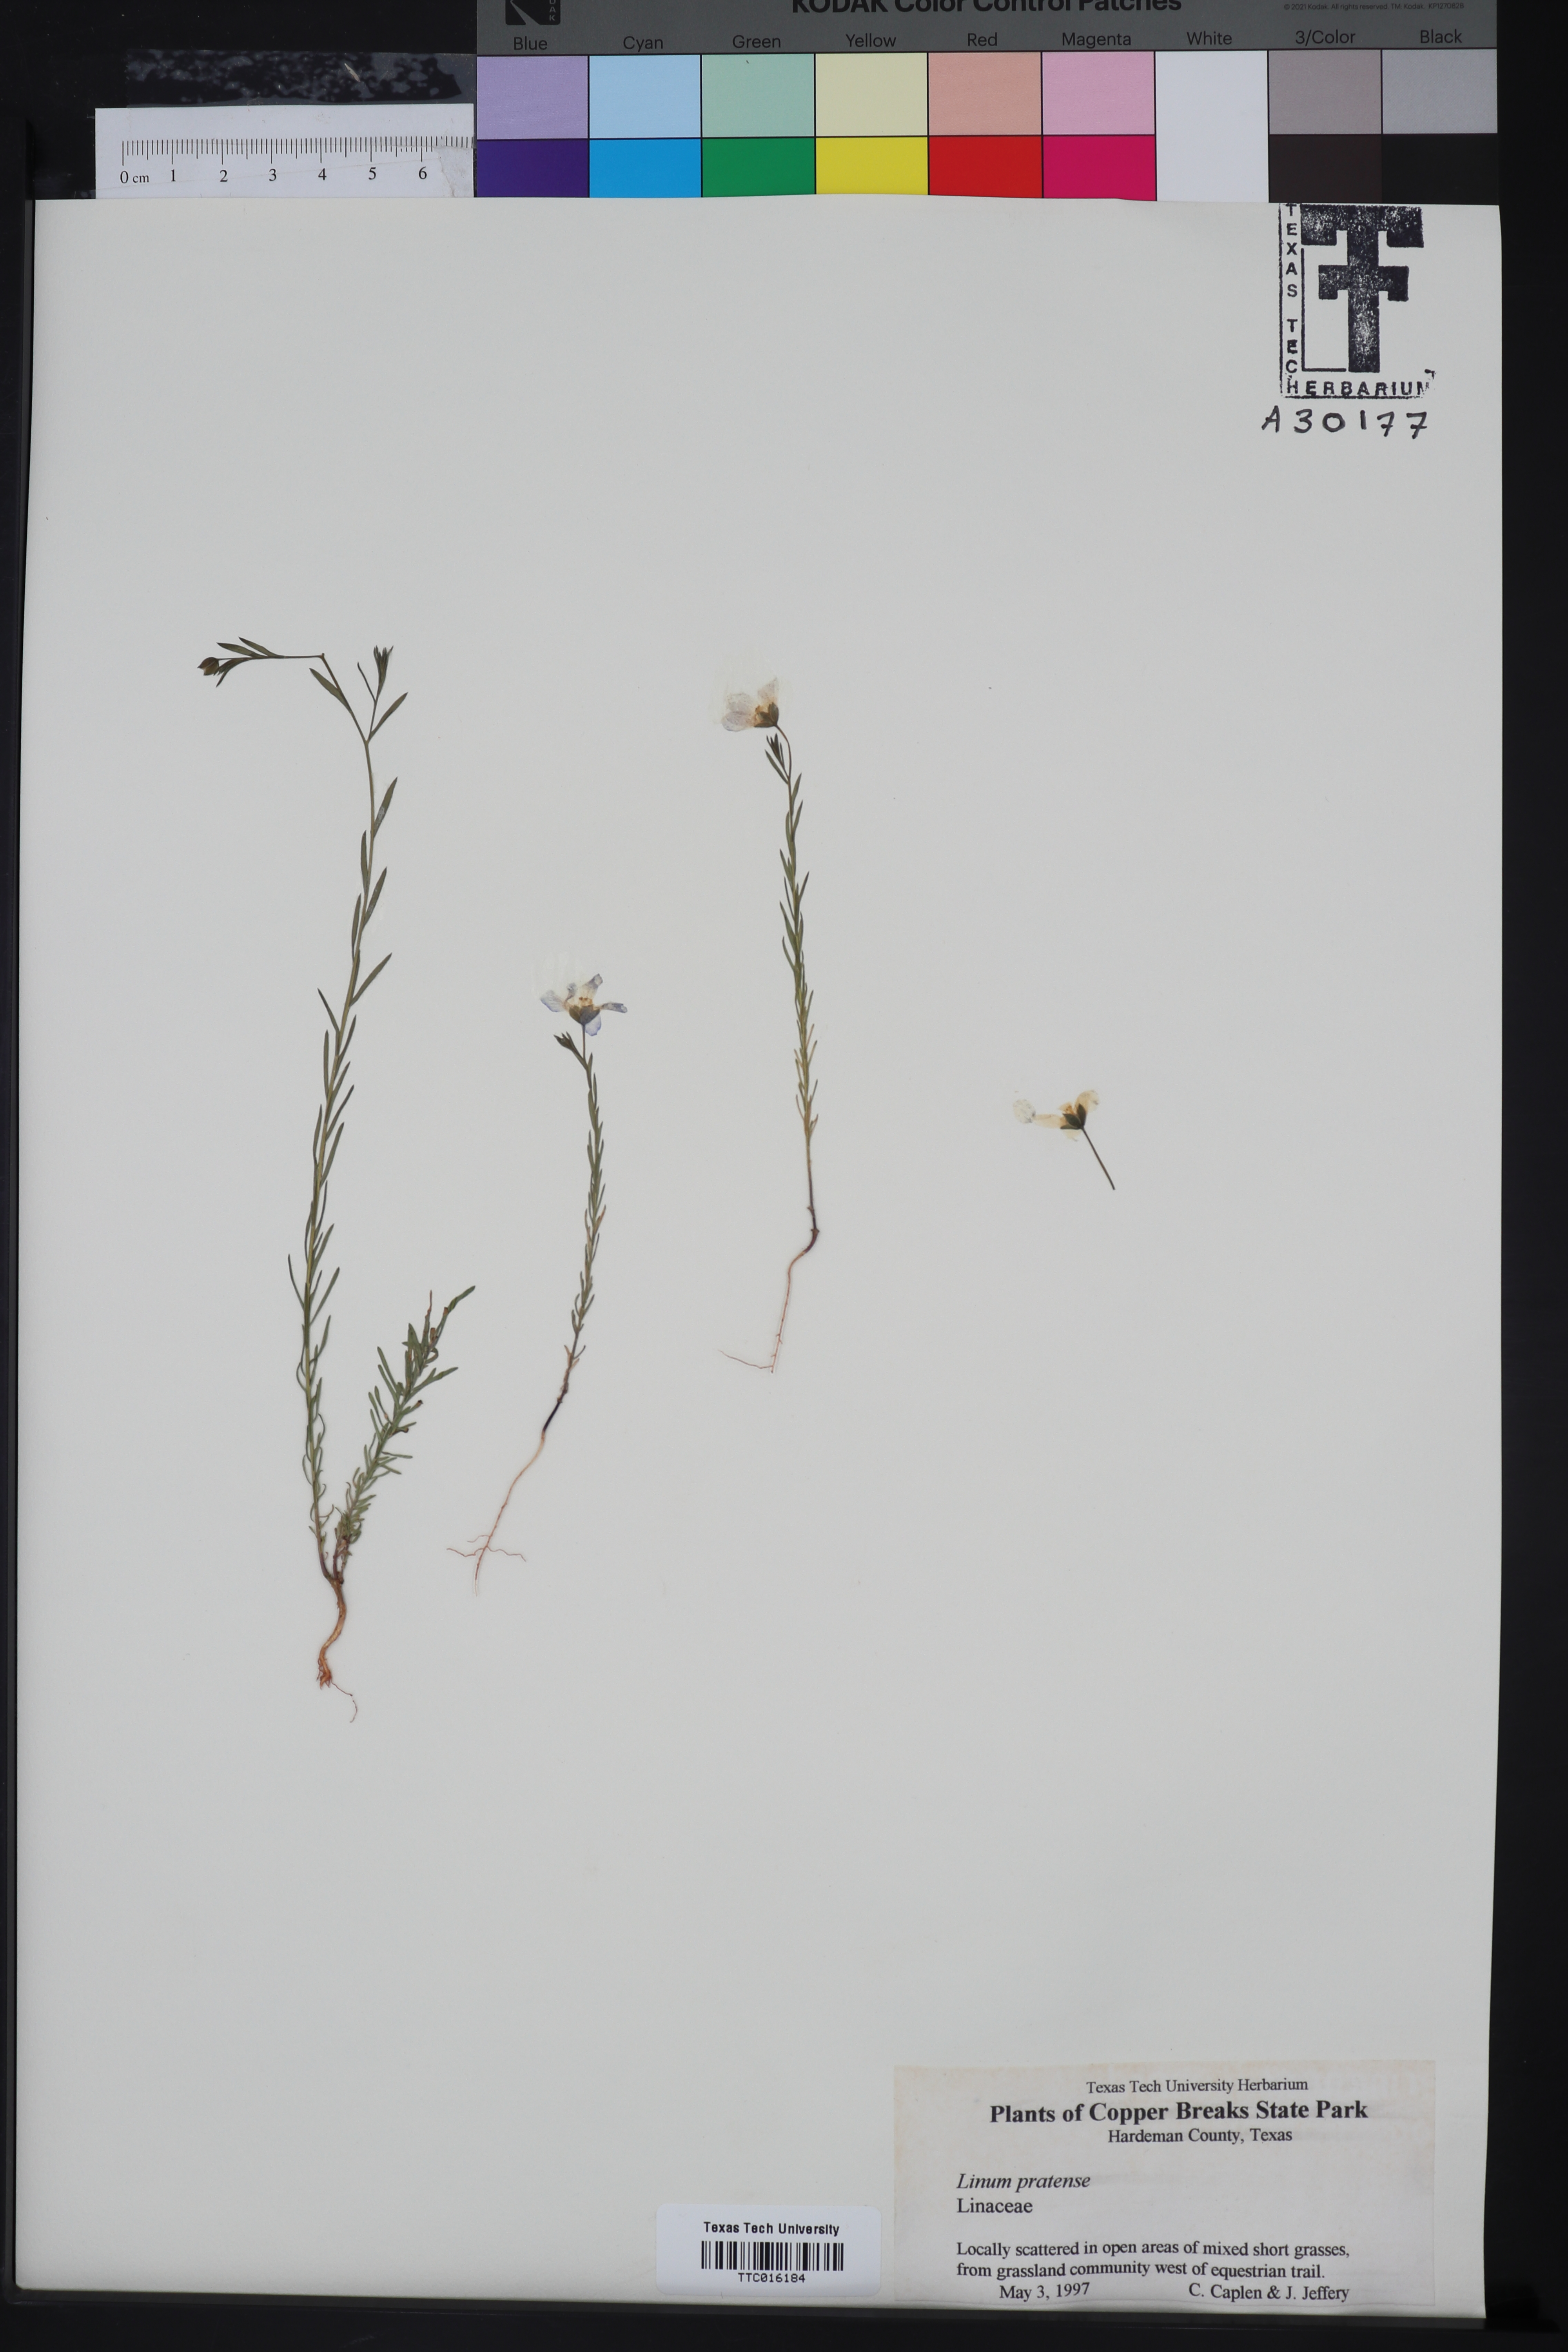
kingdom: Plantae
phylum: Tracheophyta
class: Magnoliopsida
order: Malpighiales
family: Linaceae
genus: Linum
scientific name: Linum pratense
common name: Norton's flax
